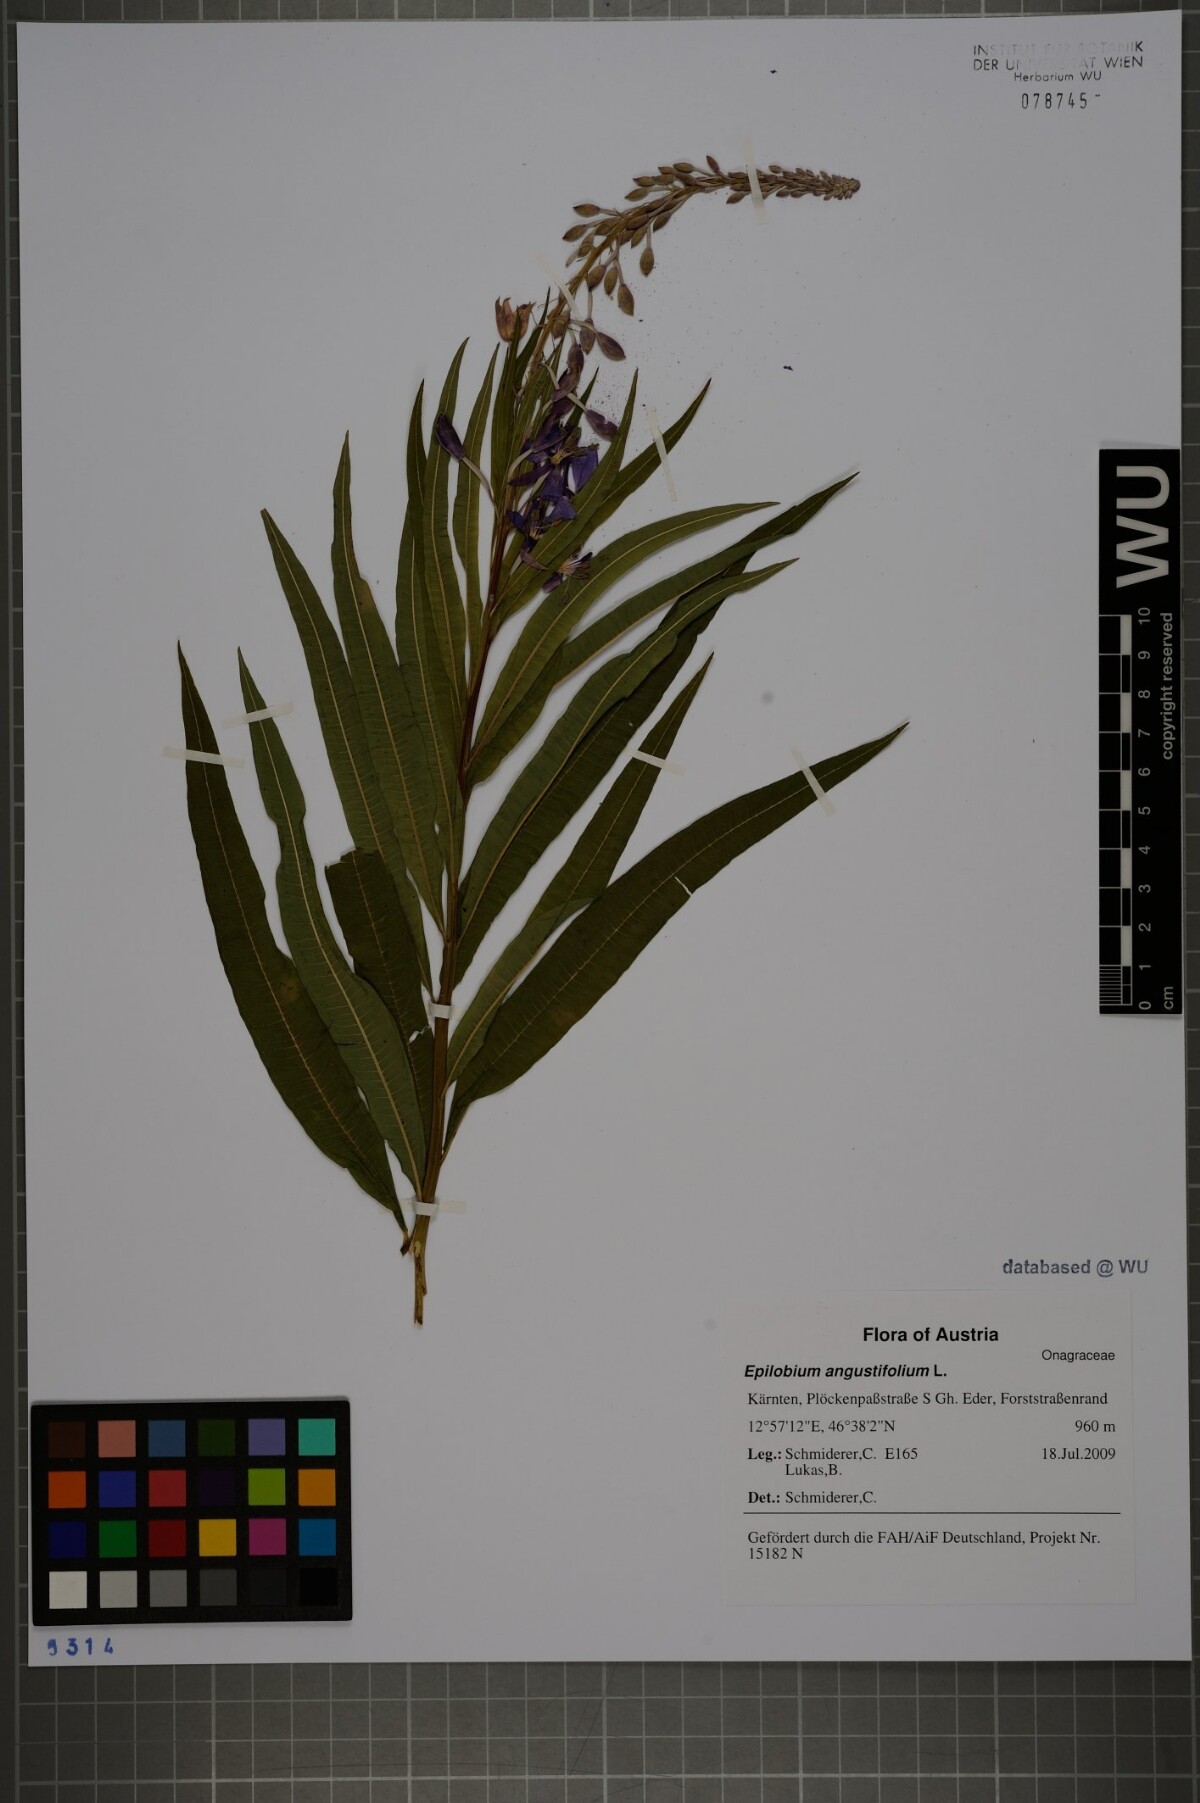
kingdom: Plantae
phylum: Tracheophyta
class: Magnoliopsida
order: Myrtales
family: Onagraceae
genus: Chamaenerion
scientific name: Chamaenerion angustifolium
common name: Fireweed
